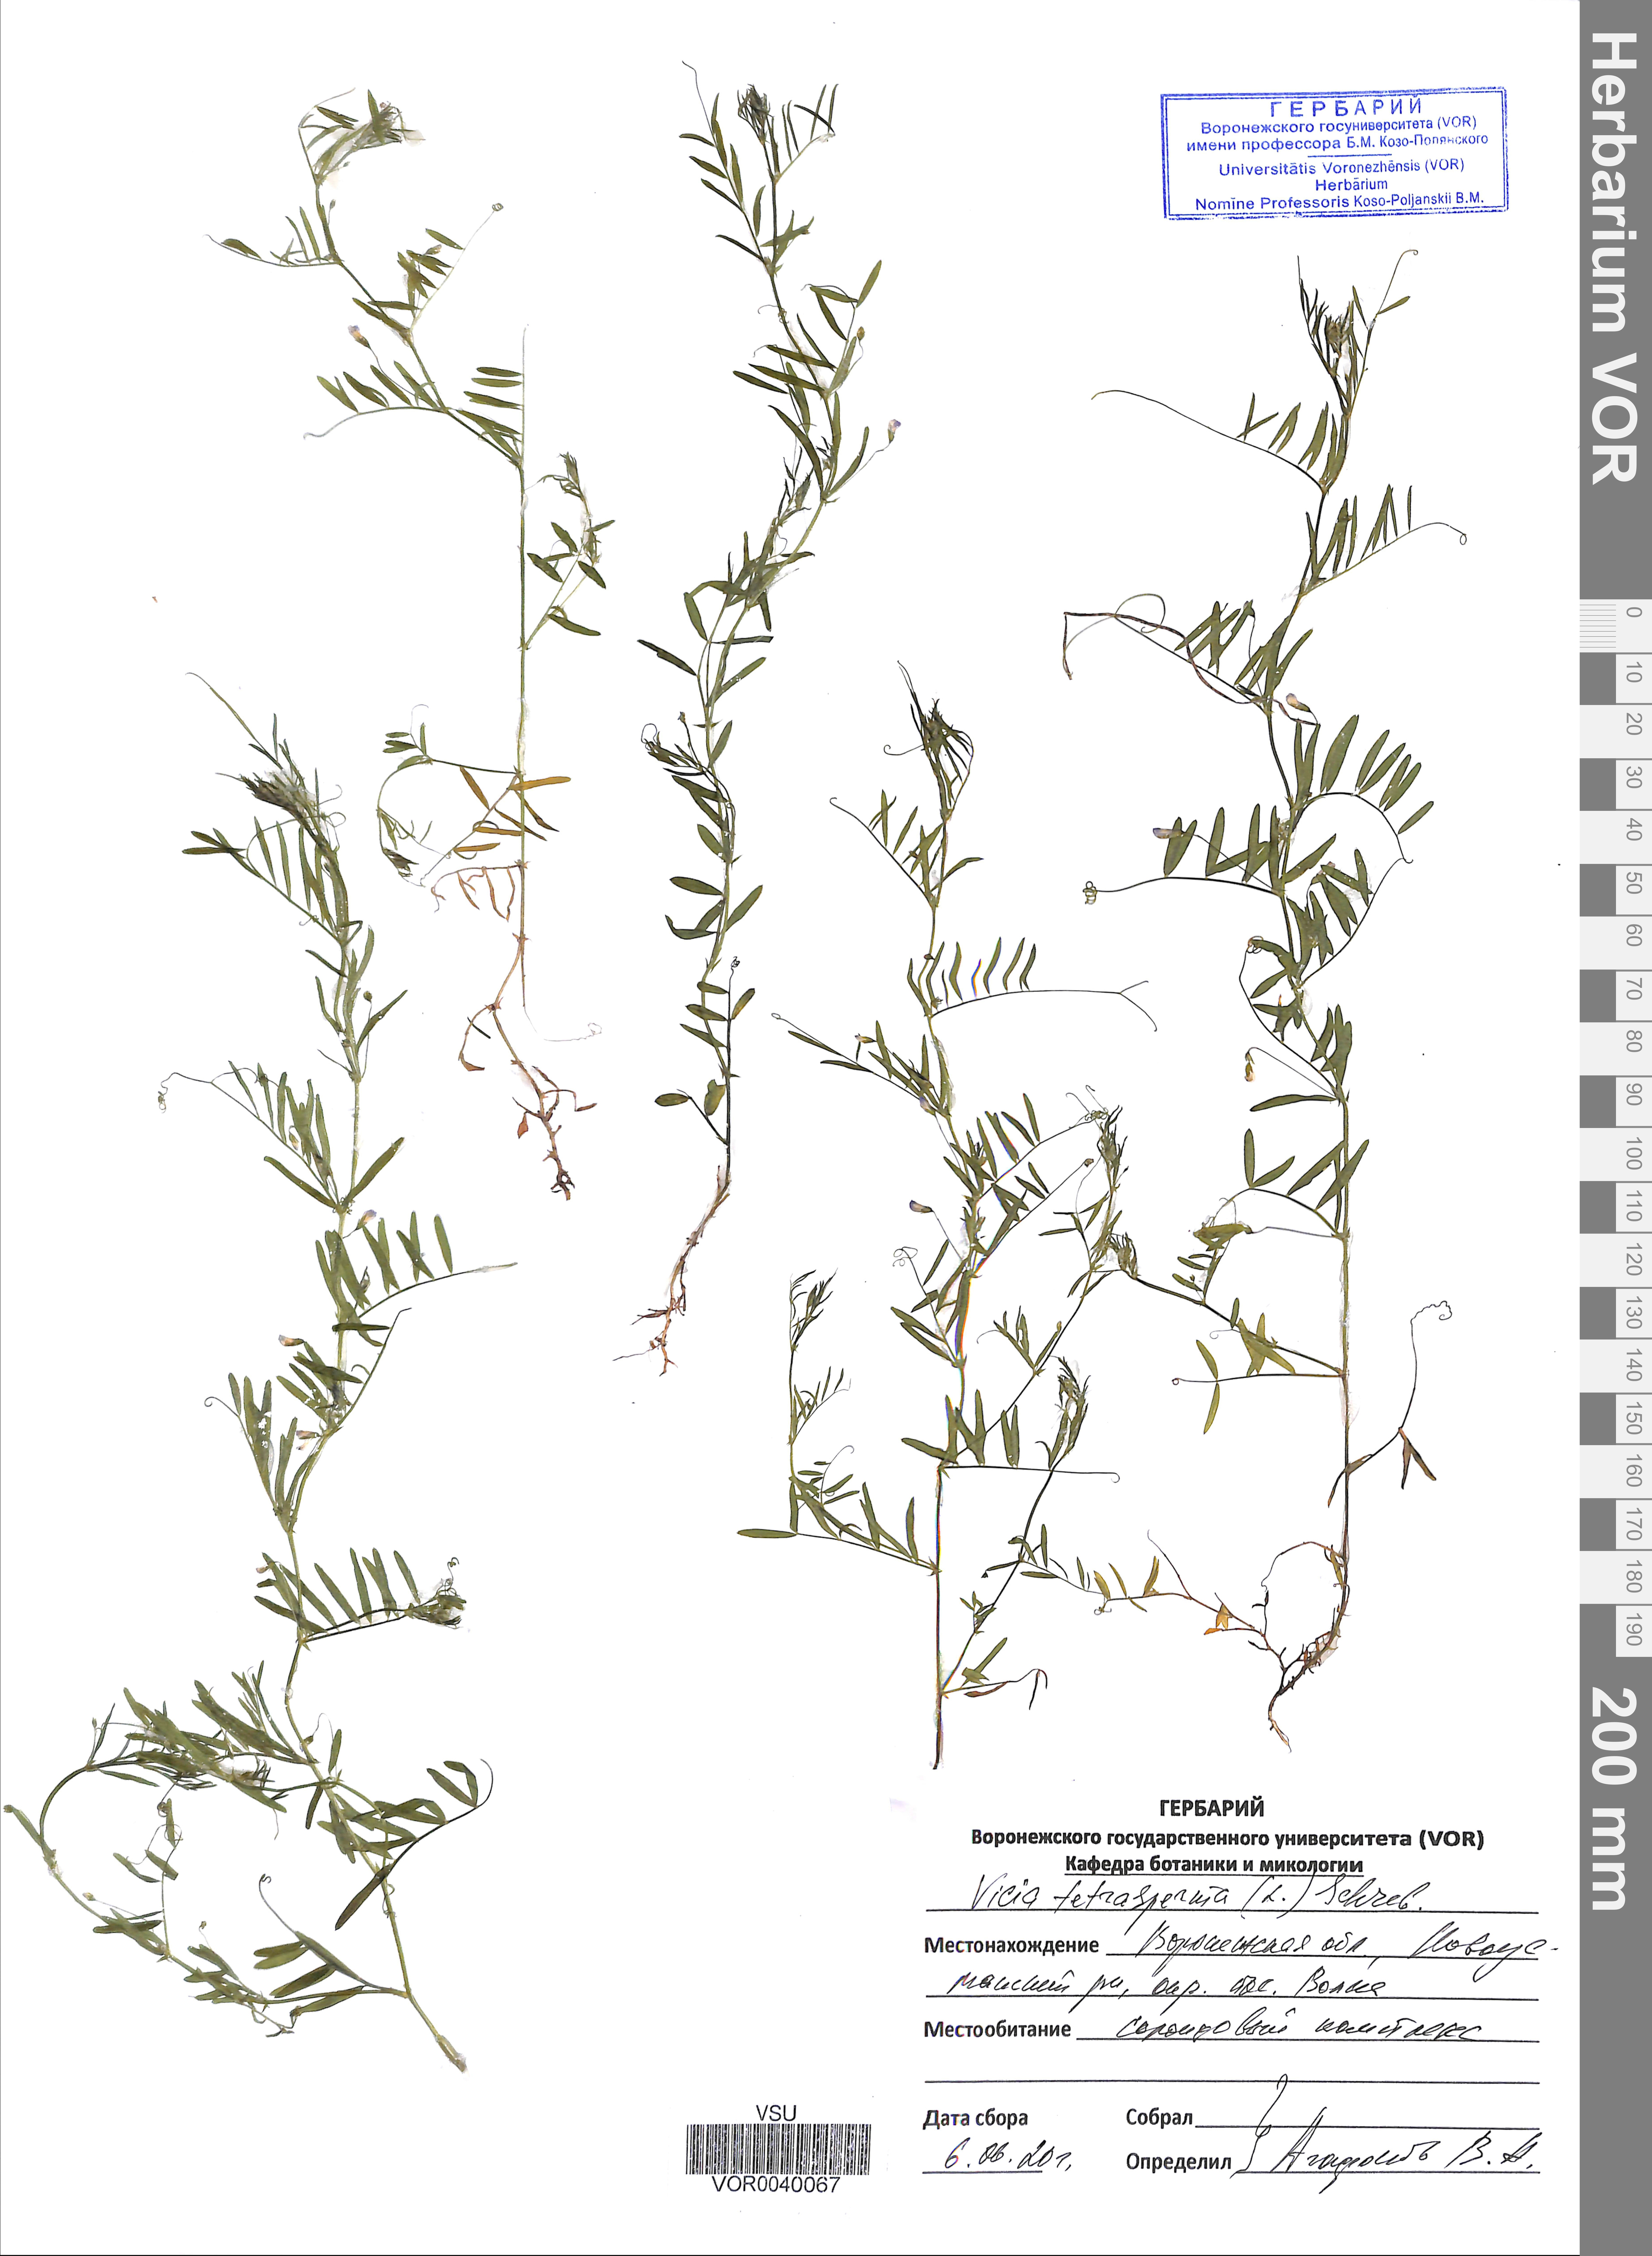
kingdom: Plantae
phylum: Tracheophyta
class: Magnoliopsida
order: Fabales
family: Fabaceae
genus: Vicia
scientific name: Vicia tetrasperma
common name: Smooth tare
